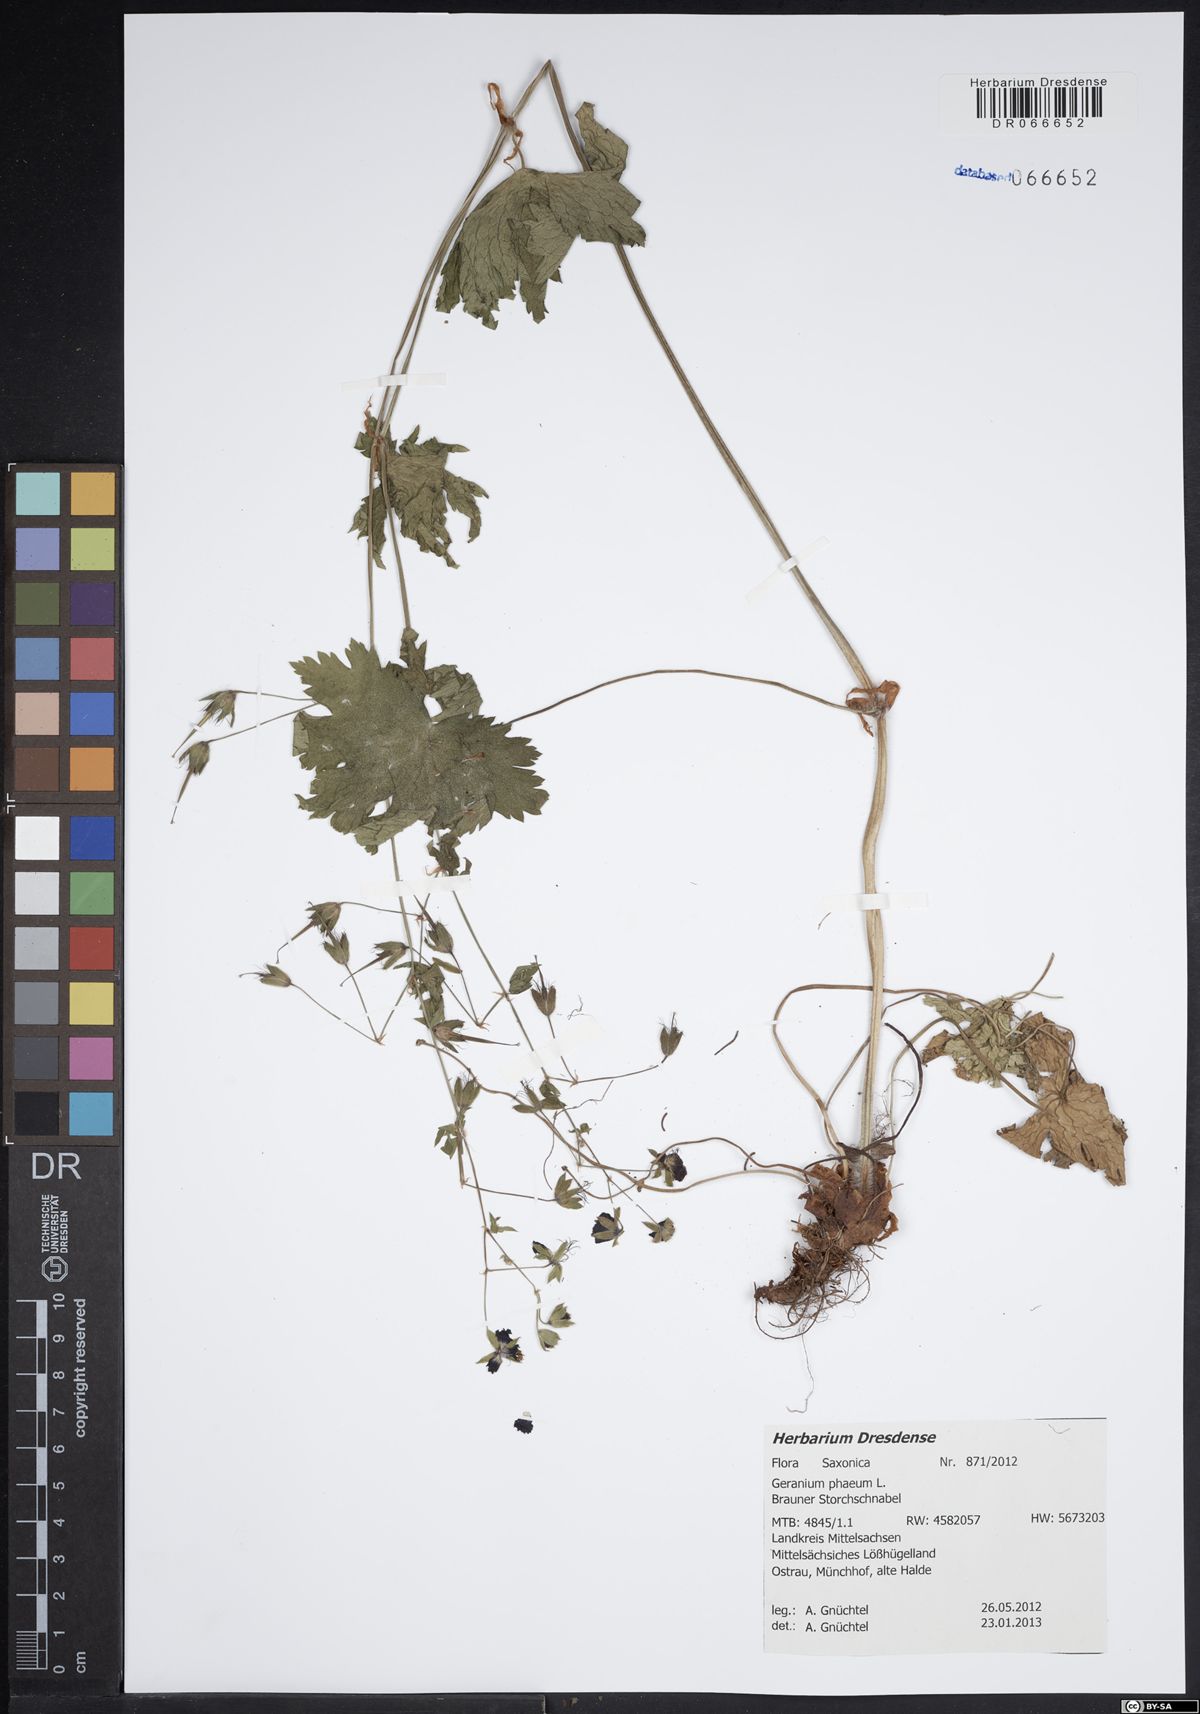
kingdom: Plantae
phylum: Tracheophyta
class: Magnoliopsida
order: Geraniales
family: Geraniaceae
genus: Geranium
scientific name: Geranium phaeum
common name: Dusky crane's-bill
